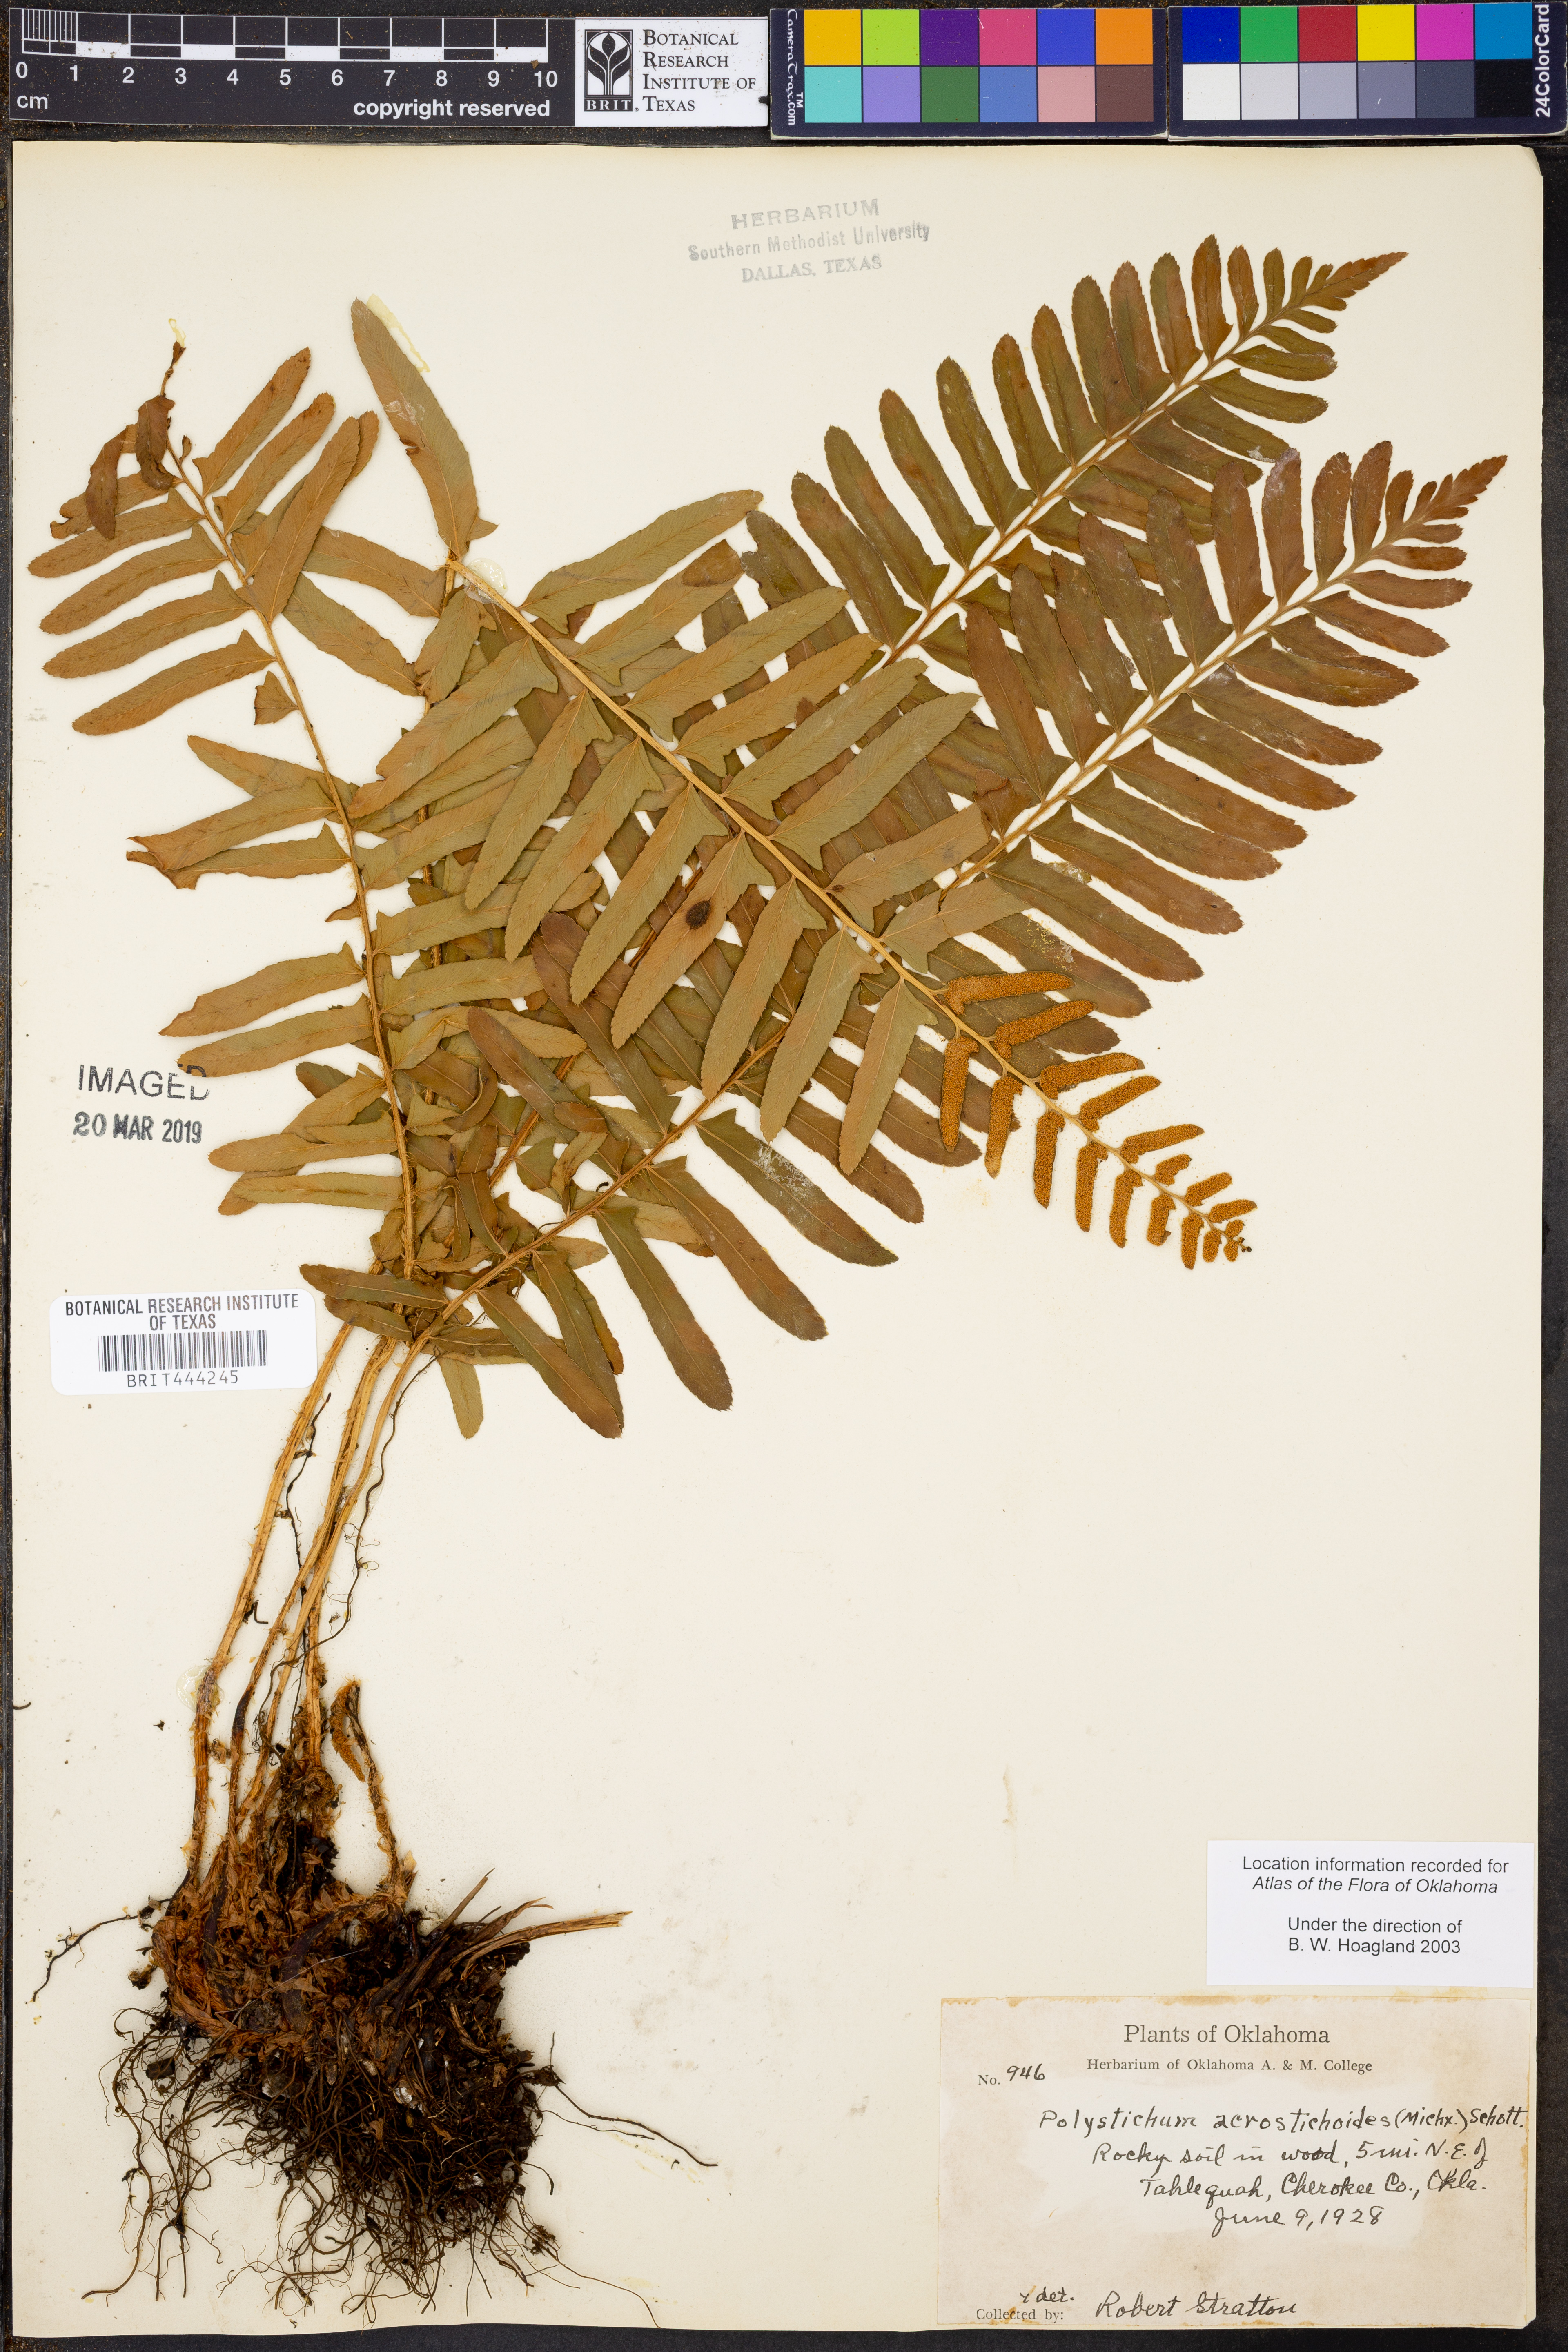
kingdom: Plantae
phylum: Tracheophyta
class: Polypodiopsida
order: Polypodiales
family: Dryopteridaceae
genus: Polystichum
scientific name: Polystichum acrostichoides
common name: Christmas fern
